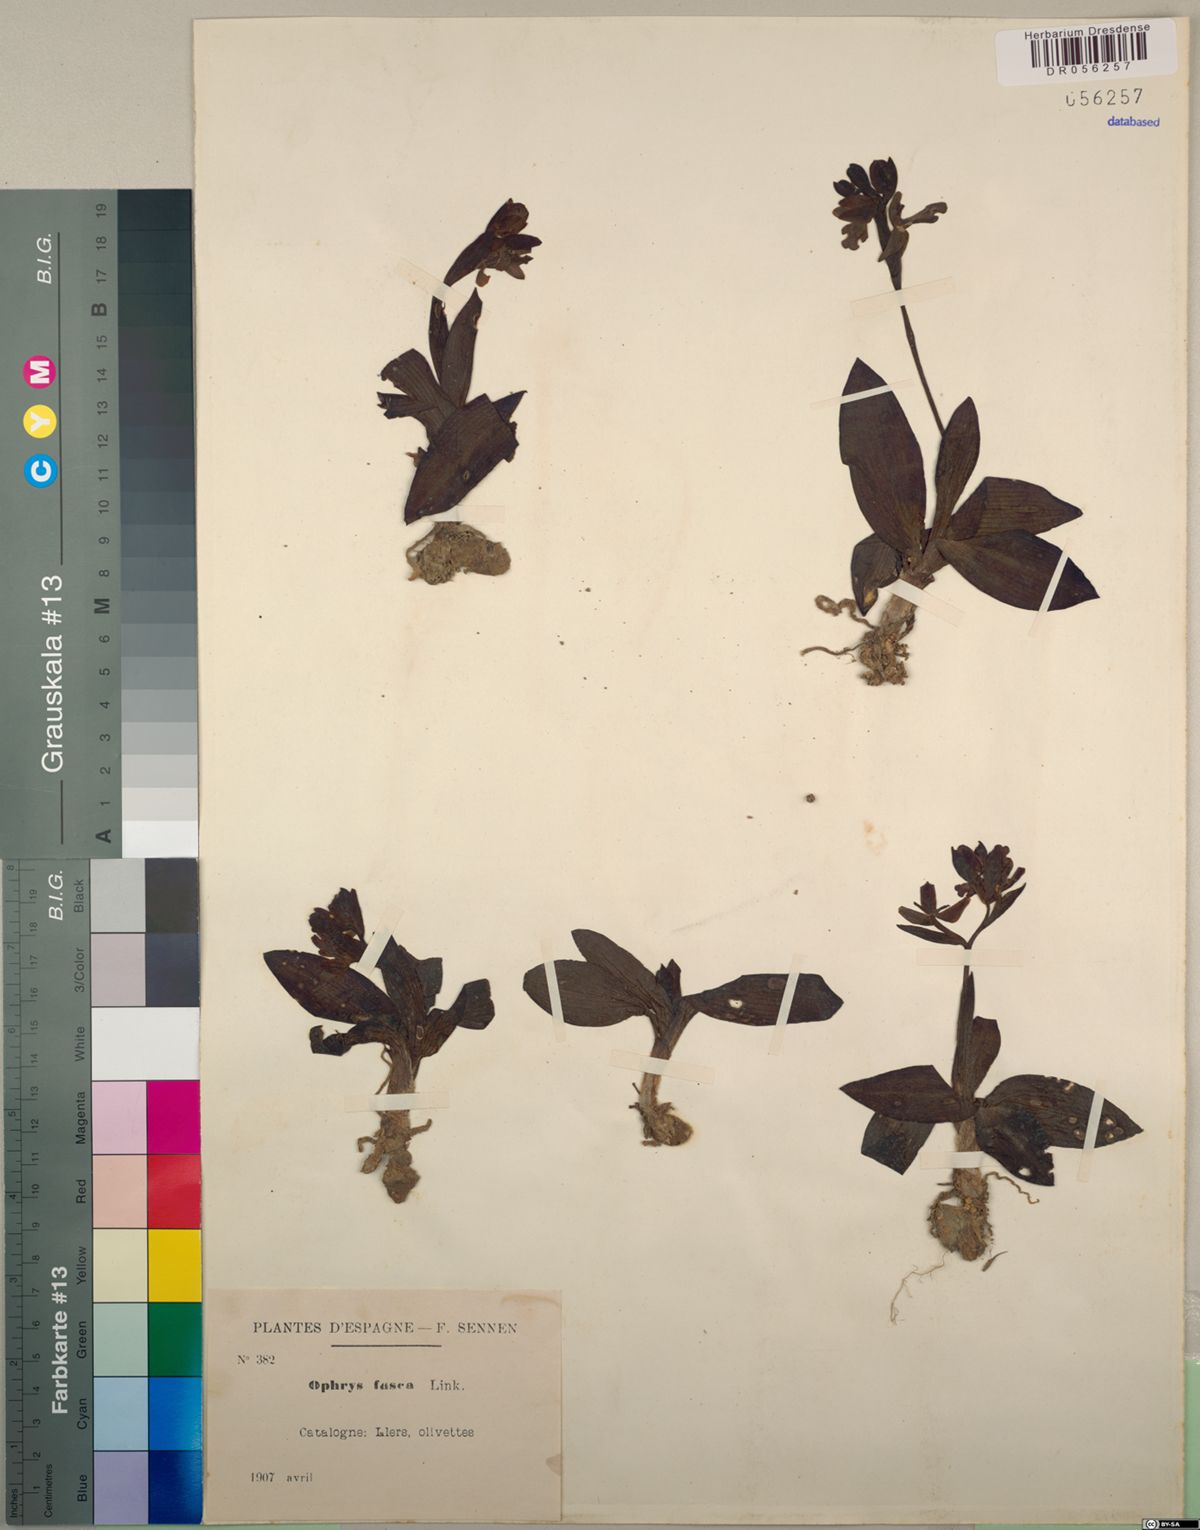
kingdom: Plantae
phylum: Tracheophyta
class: Liliopsida
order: Asparagales
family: Orchidaceae
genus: Ophrys
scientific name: Ophrys fusca
